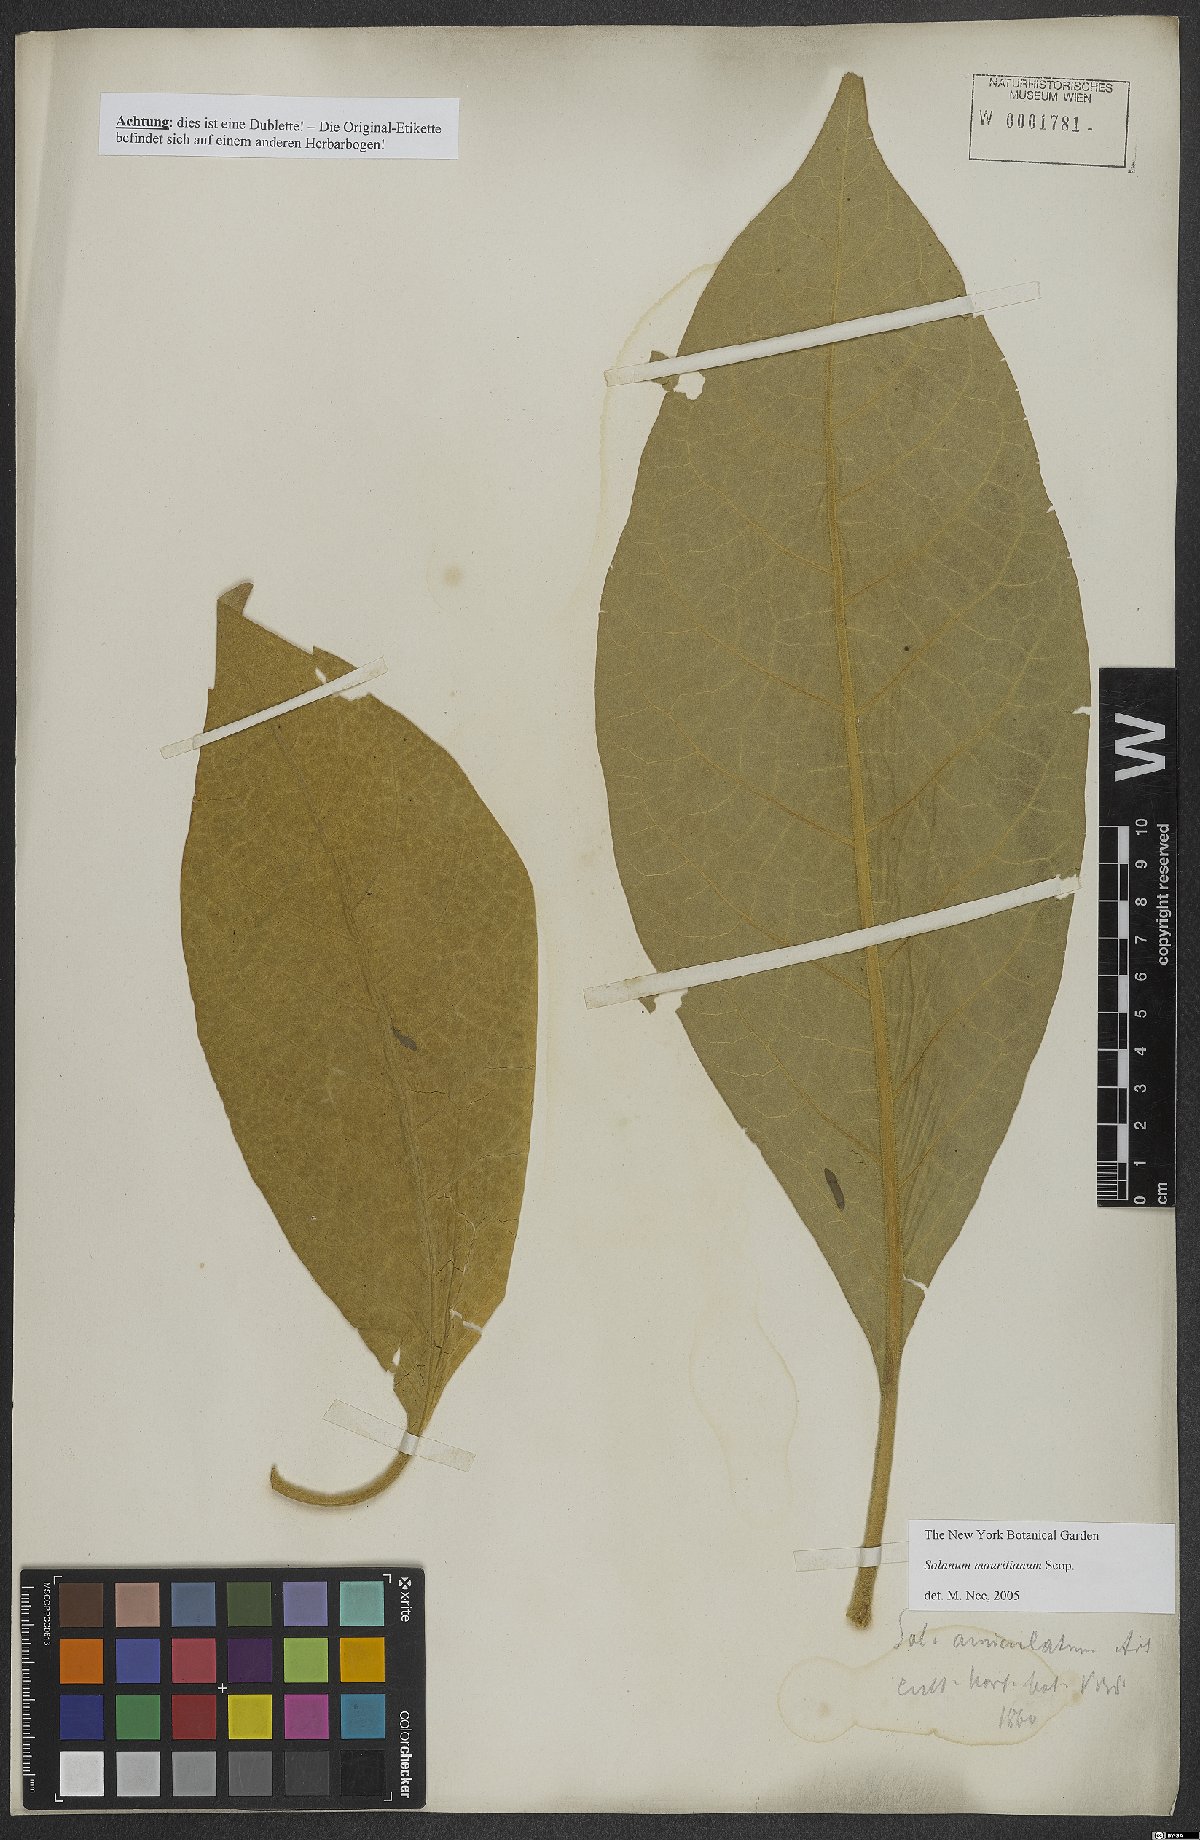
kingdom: Plantae
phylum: Tracheophyta
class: Magnoliopsida
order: Solanales
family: Solanaceae
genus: Solanum
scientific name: Solanum mauritianum
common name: Earleaf nightshade
